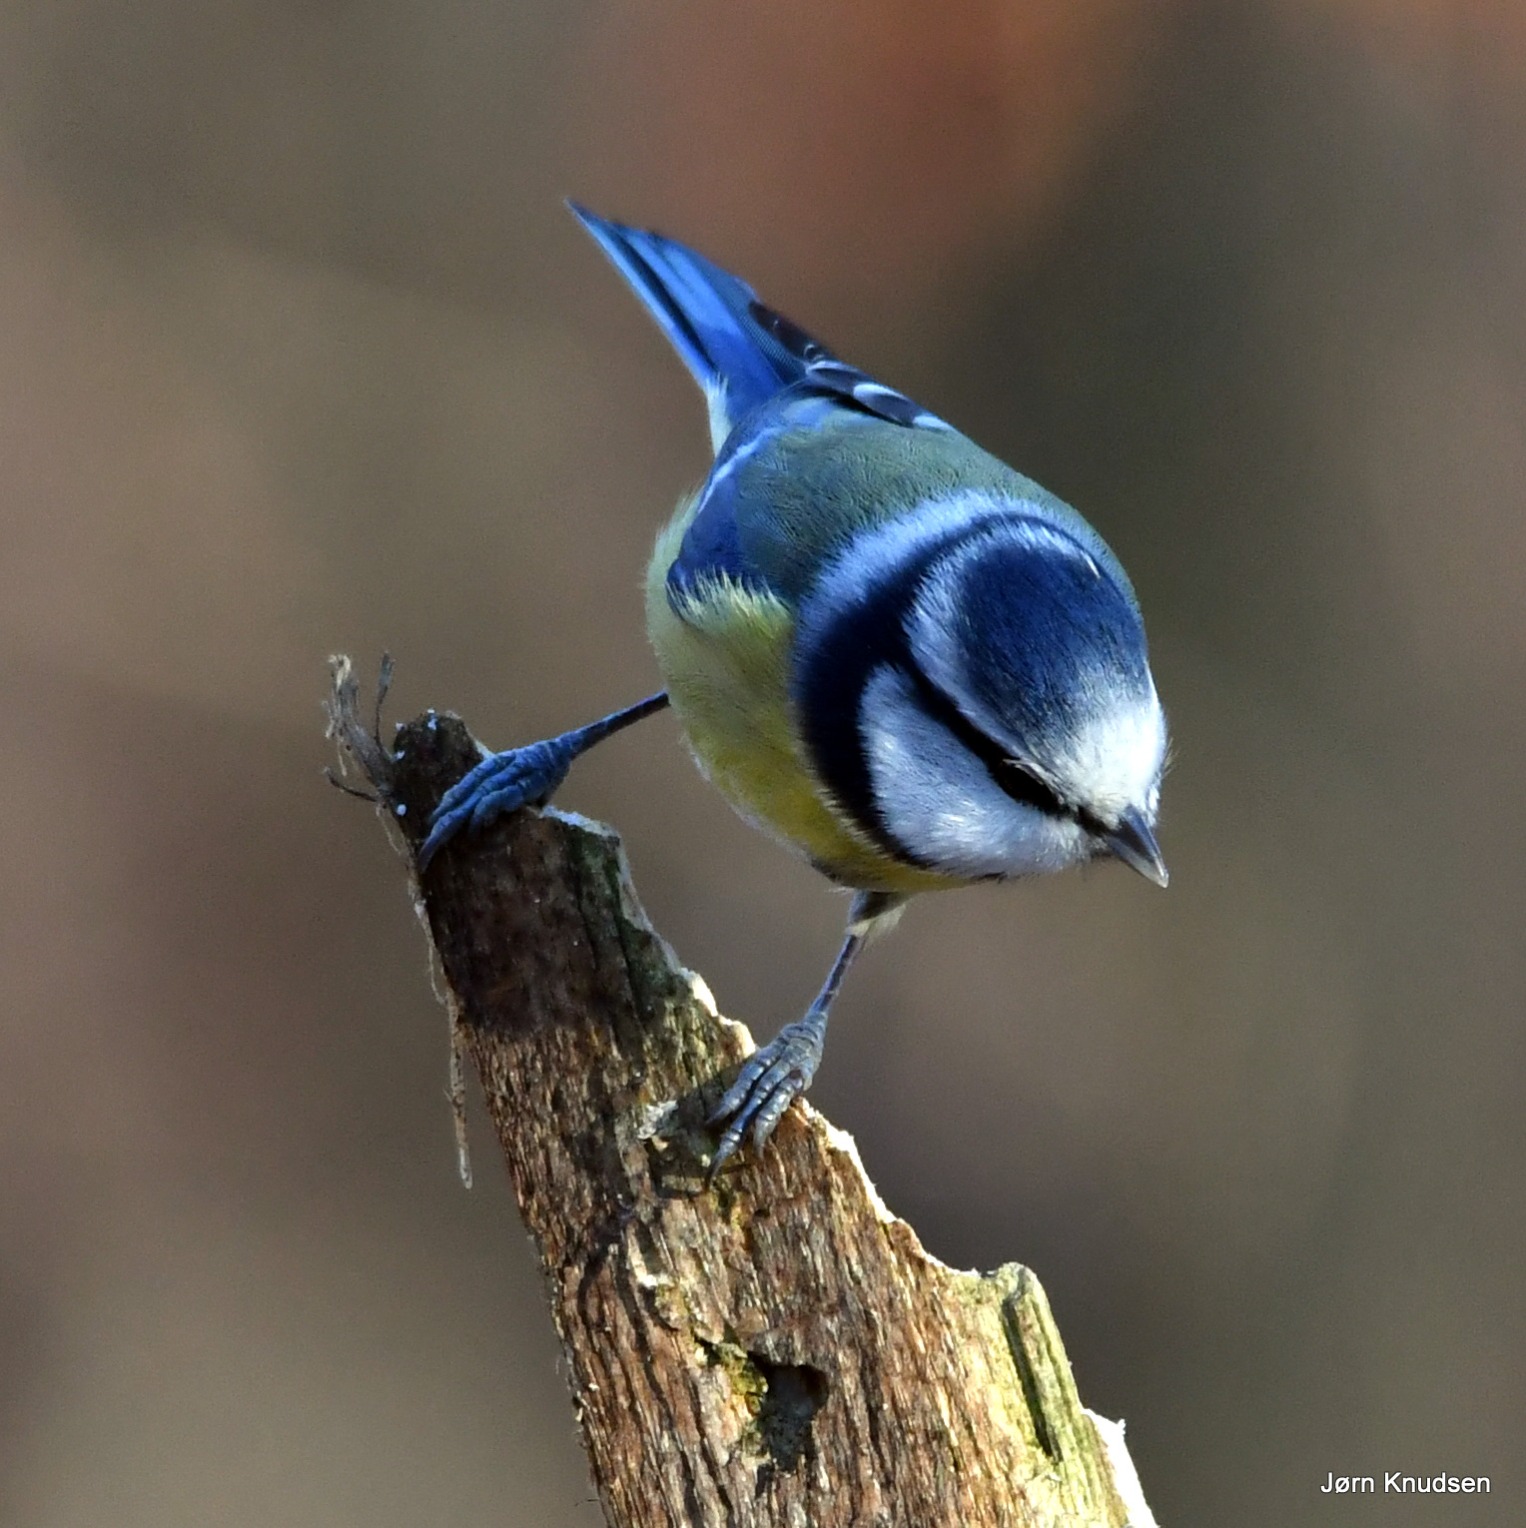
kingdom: Animalia
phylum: Chordata
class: Aves
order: Passeriformes
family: Paridae
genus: Cyanistes
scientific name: Cyanistes caeruleus
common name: Blåmejse
